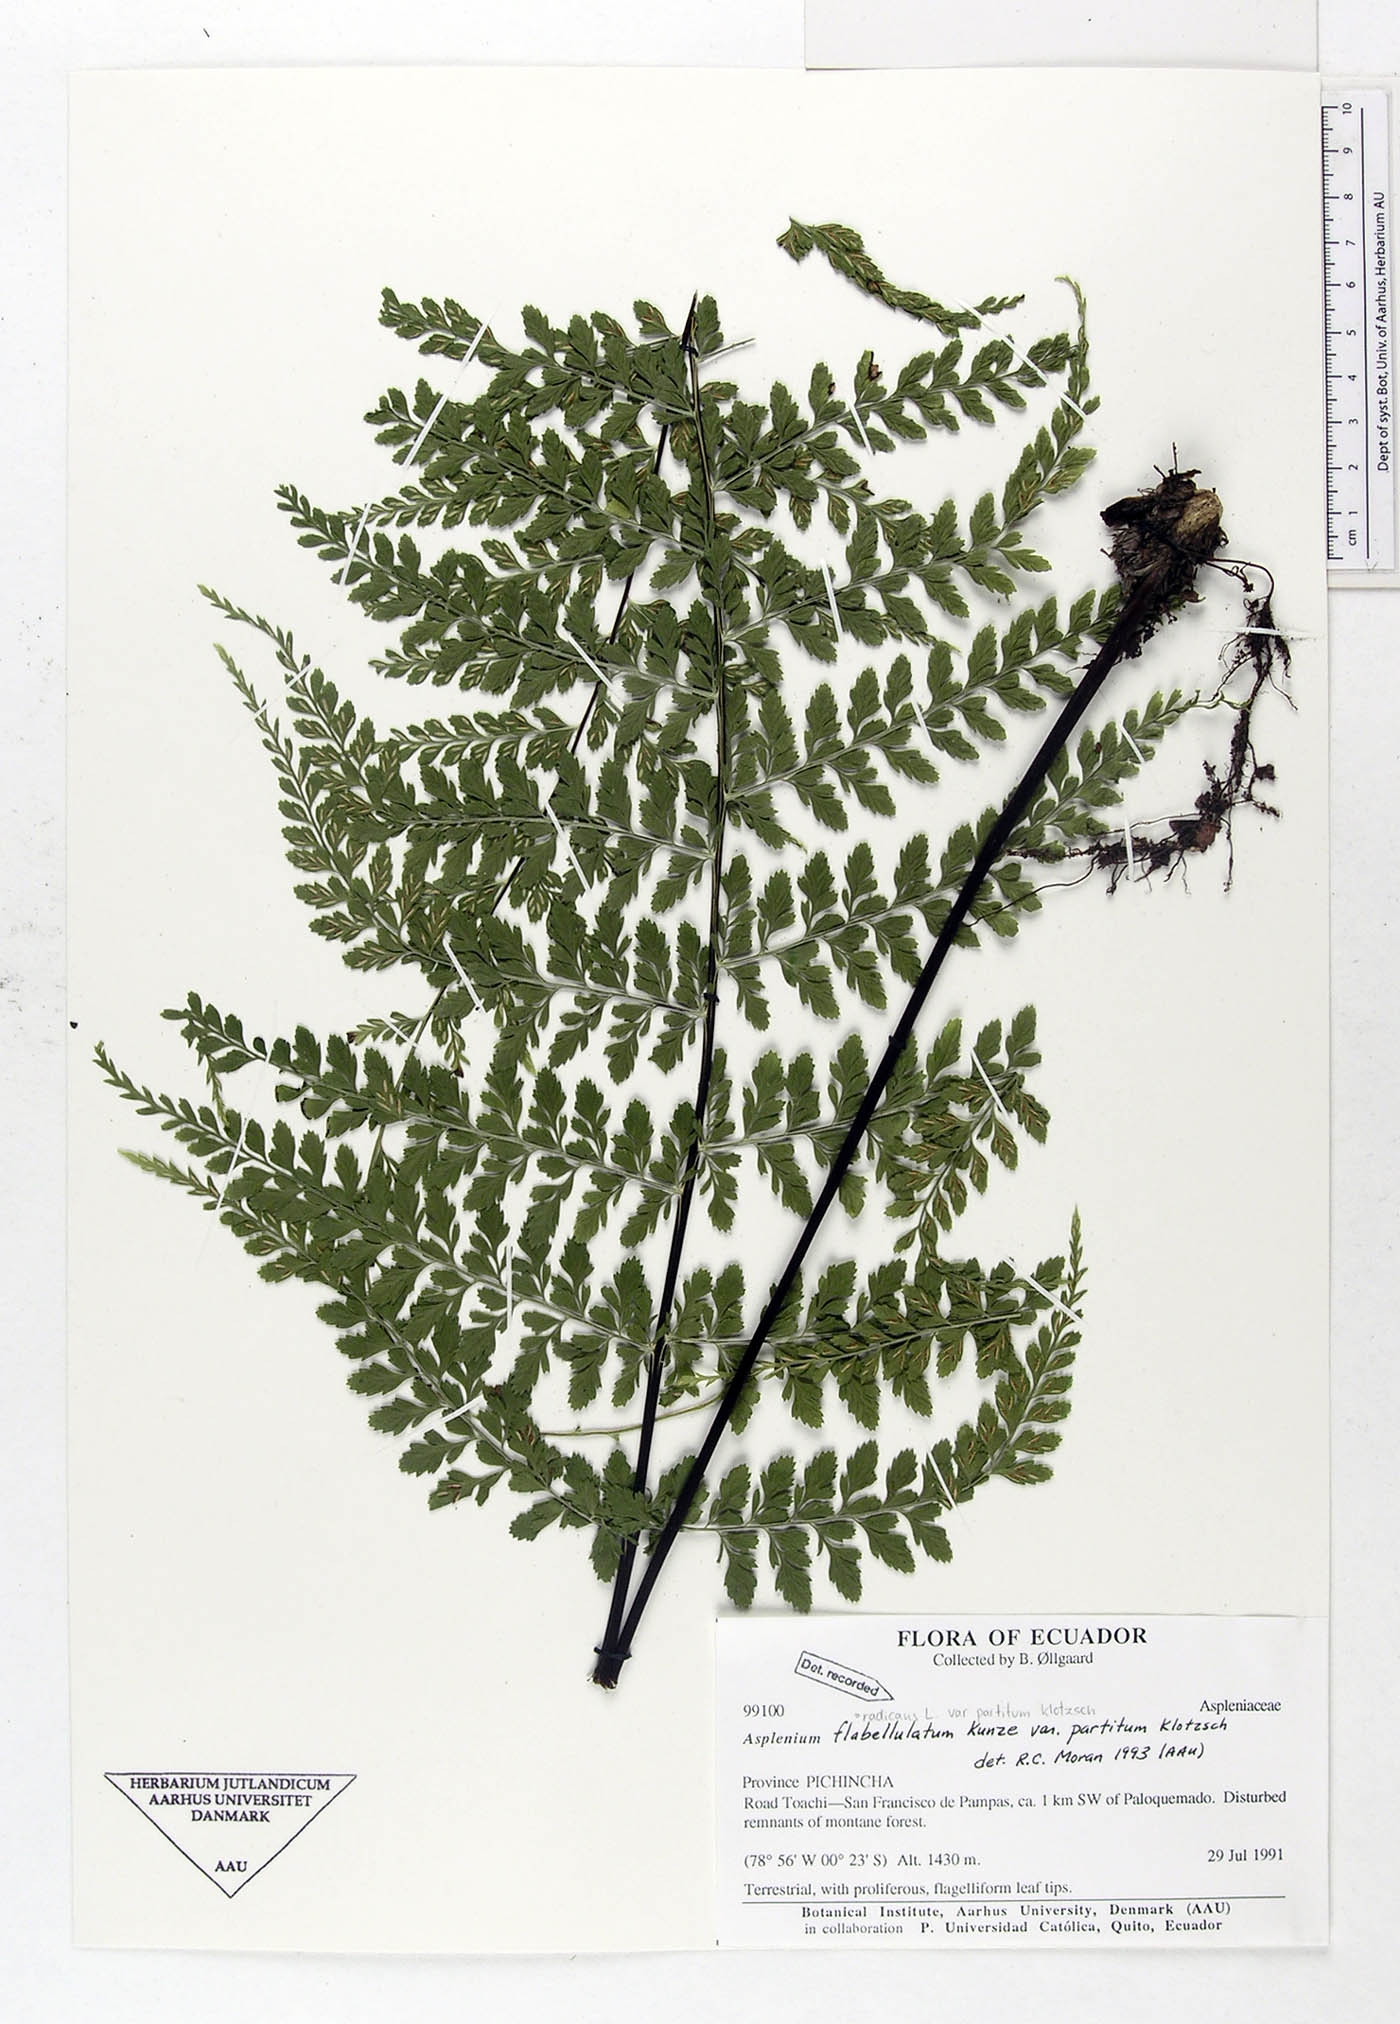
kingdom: Plantae
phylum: Tracheophyta
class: Polypodiopsida
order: Polypodiales
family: Aspleniaceae
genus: Asplenium
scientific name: Asplenium flabellulatum
